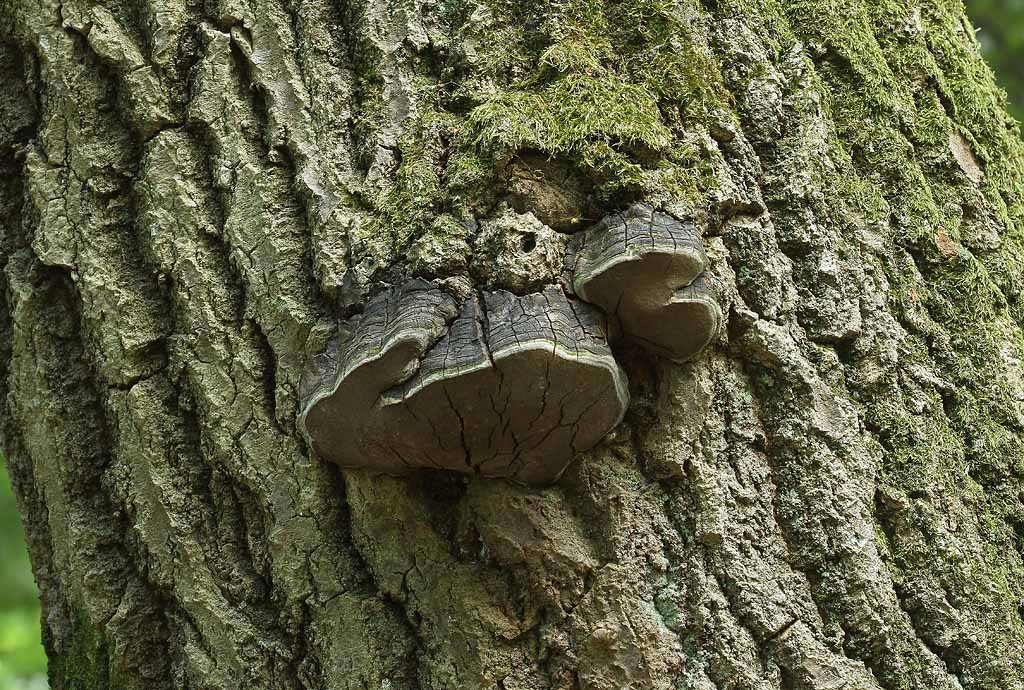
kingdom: Fungi
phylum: Basidiomycota
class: Agaricomycetes
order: Hymenochaetales
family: Hymenochaetaceae
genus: Phellinus
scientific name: Phellinus tremulae
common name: aspe-ildporesvamp
